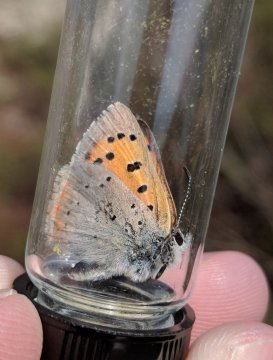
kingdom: Animalia
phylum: Arthropoda
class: Insecta
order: Lepidoptera
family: Lycaenidae
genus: Lycaena
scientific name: Lycaena phlaeas
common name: American Copper
